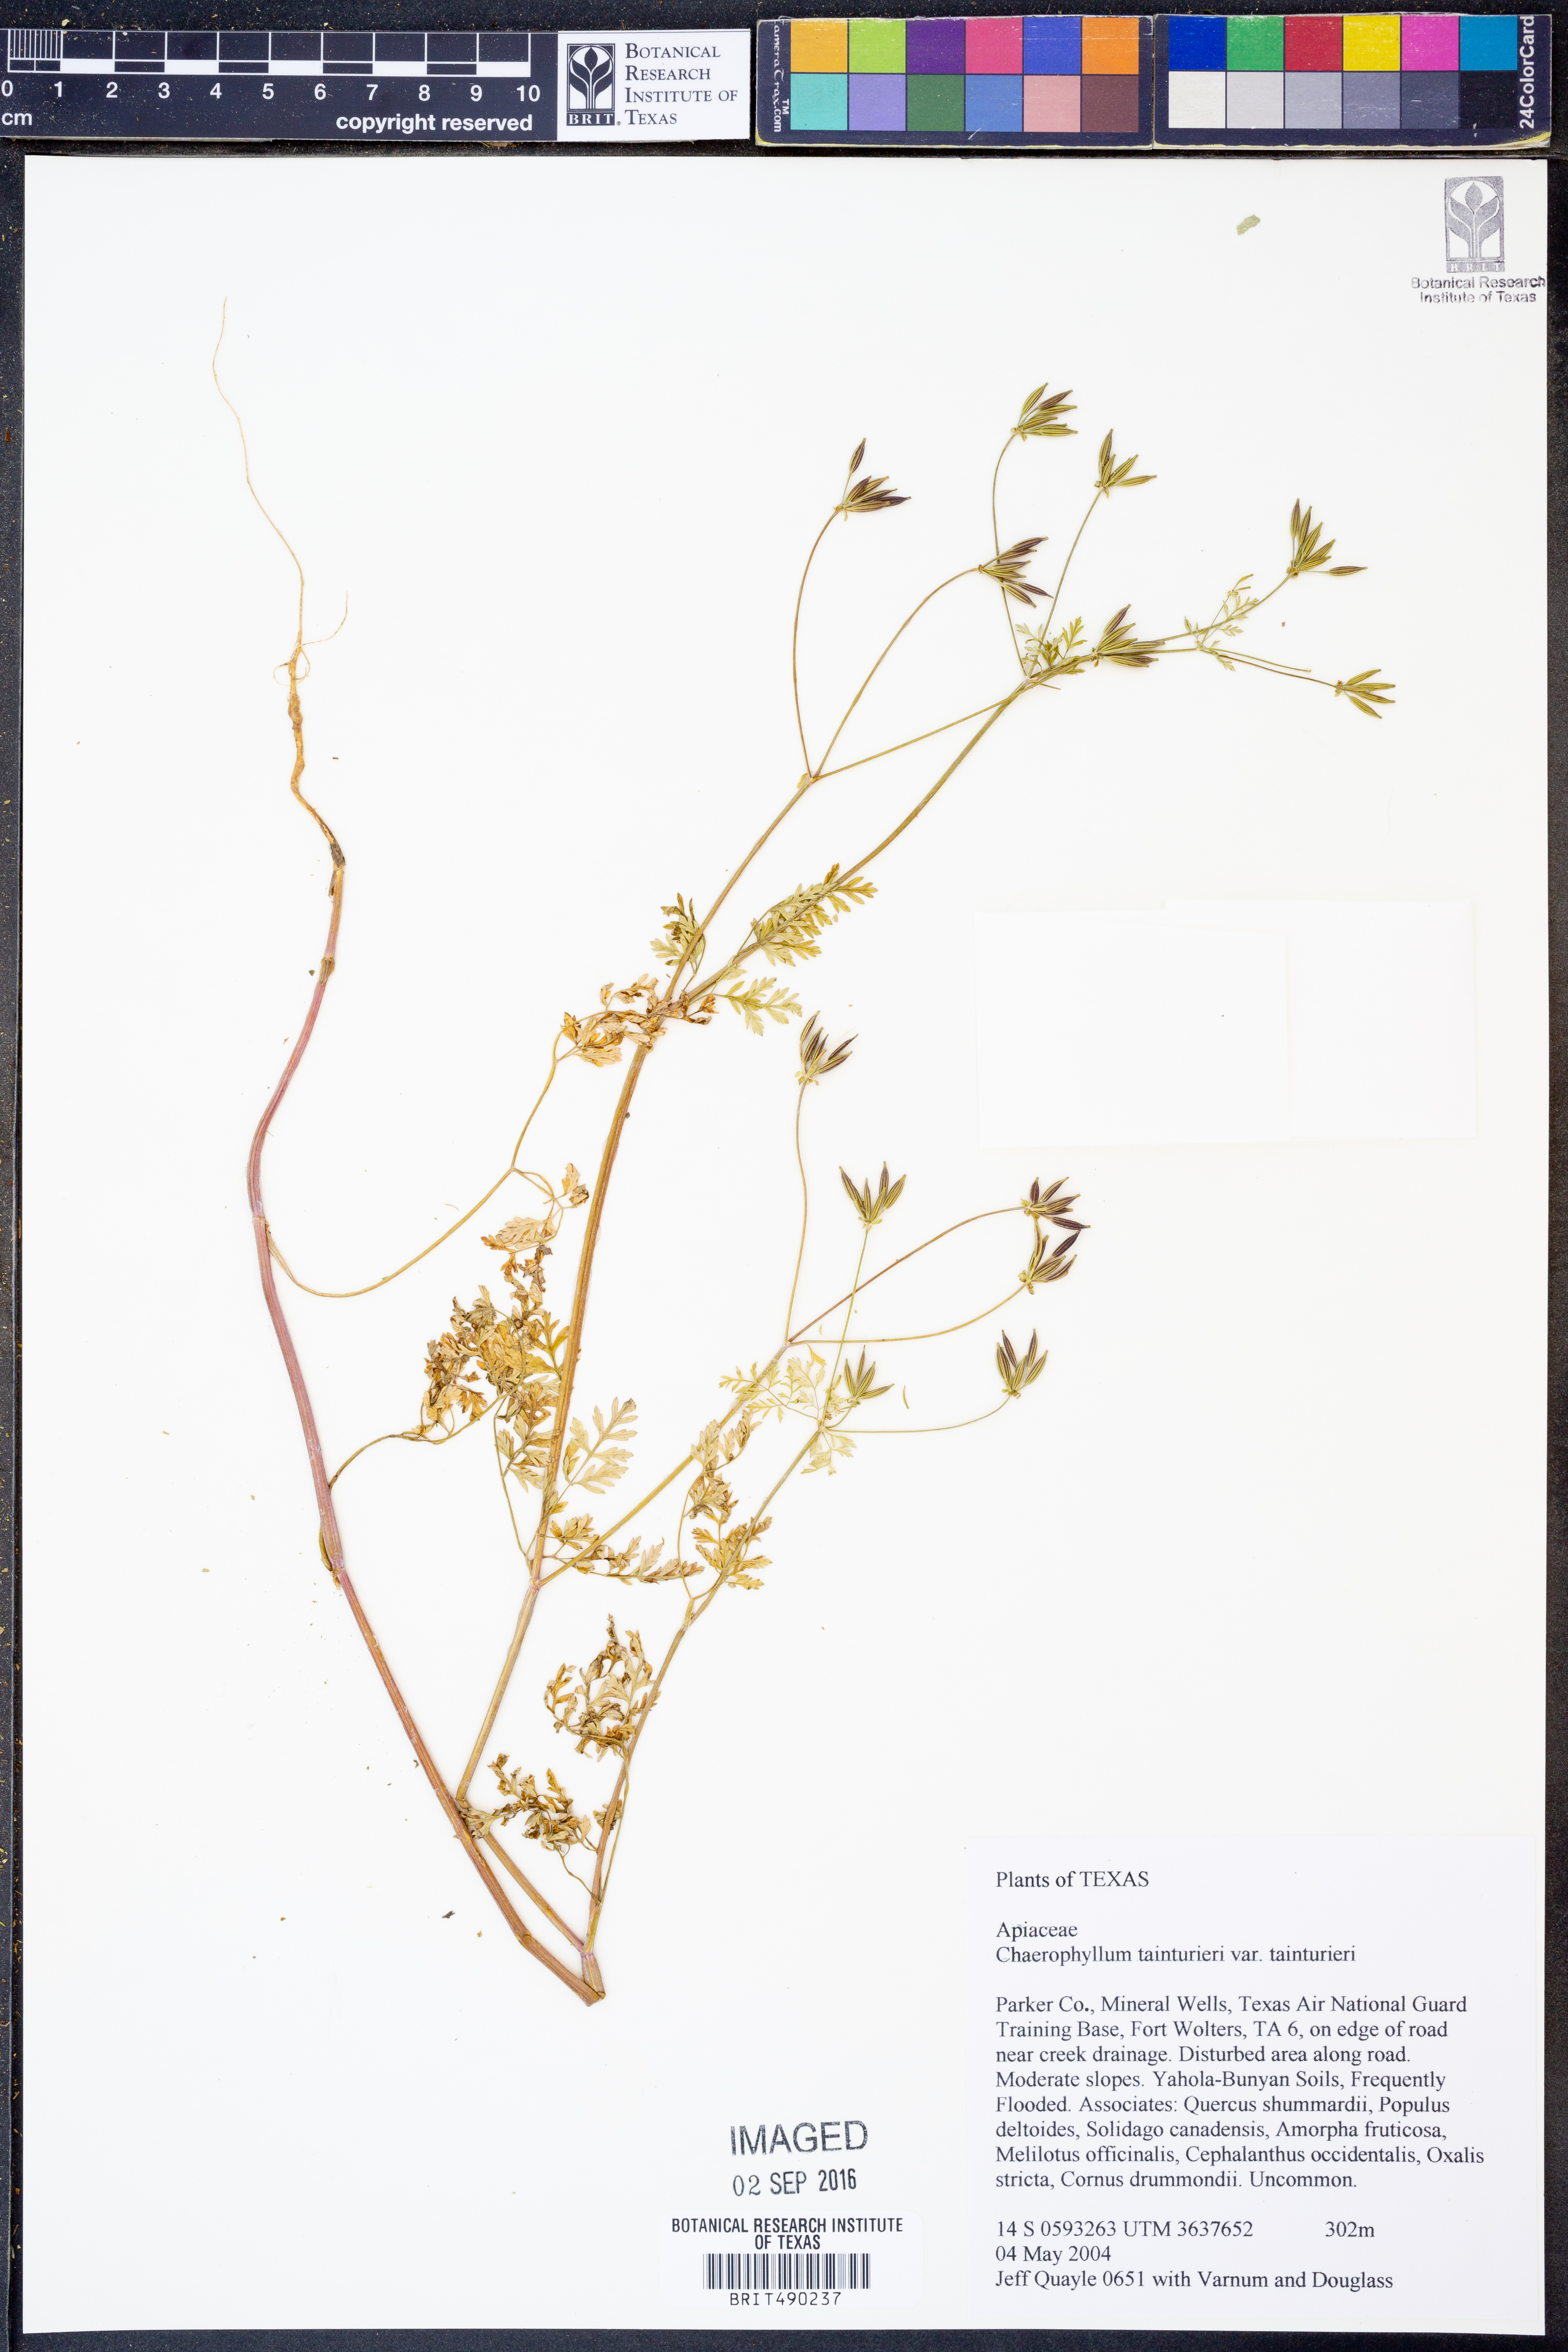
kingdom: Plantae
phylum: Tracheophyta
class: Magnoliopsida
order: Apiales
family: Apiaceae
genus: Chaerophyllum
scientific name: Chaerophyllum tainturieri
